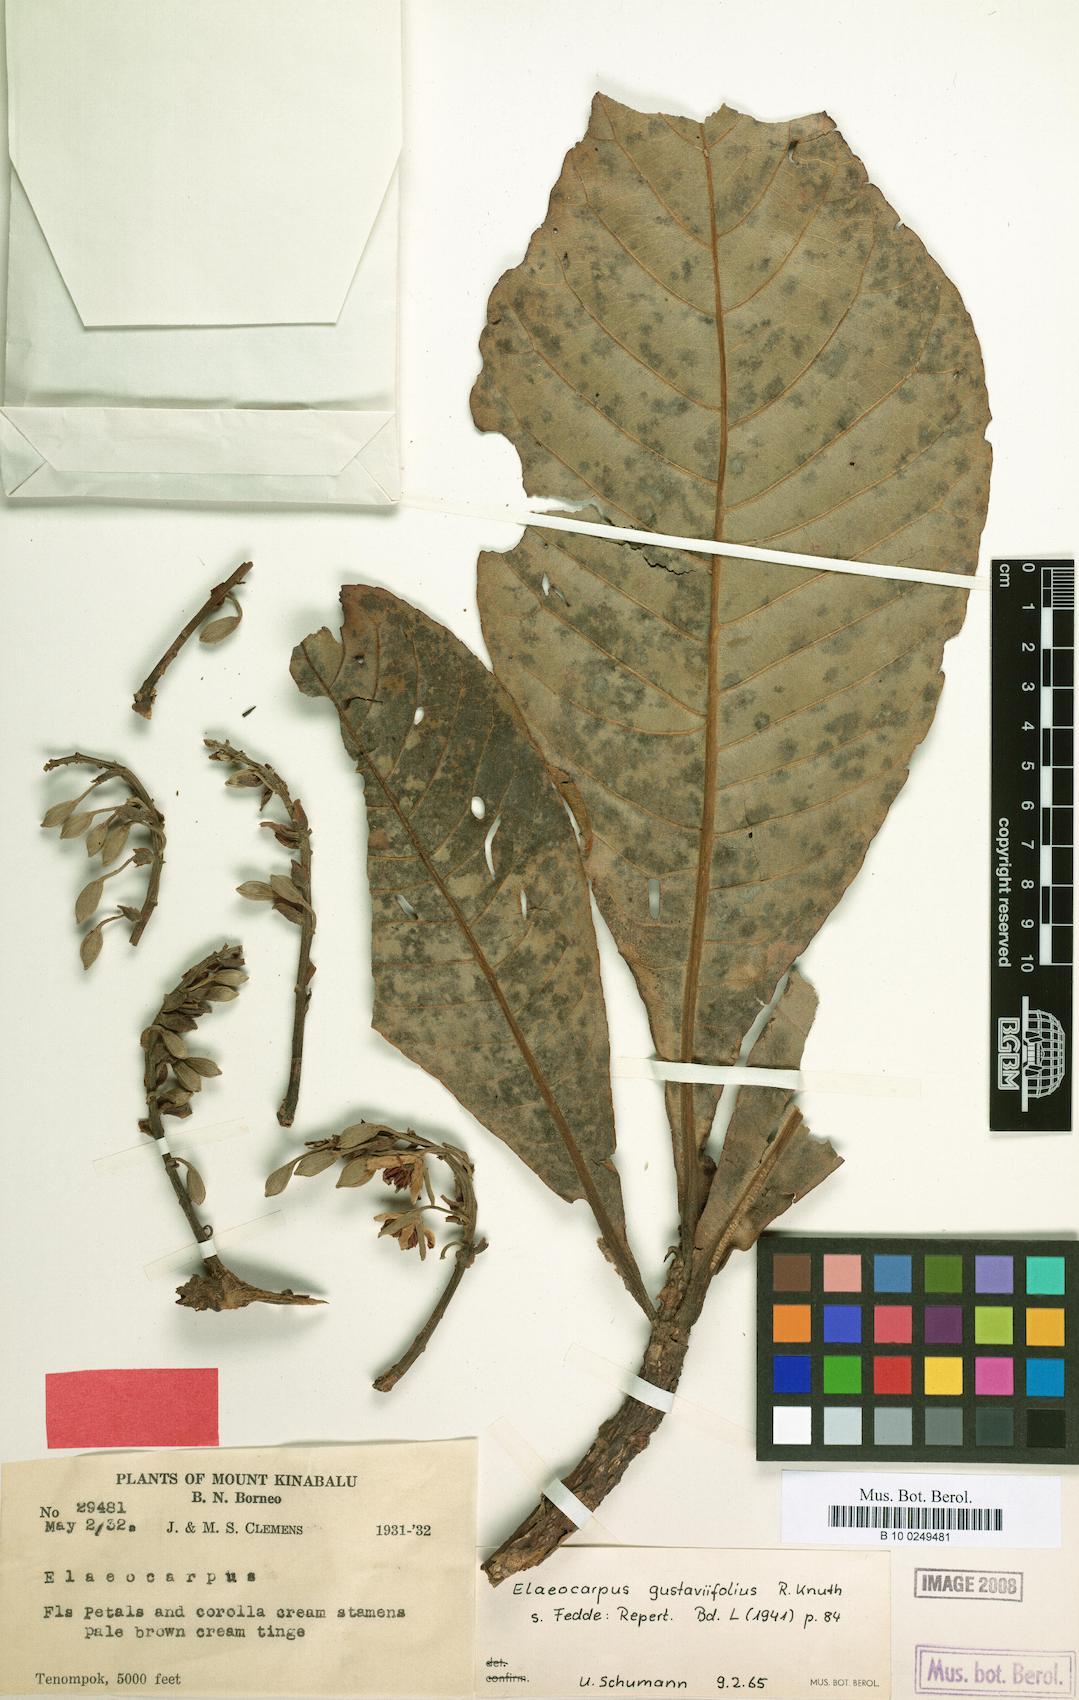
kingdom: Plantae
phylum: Tracheophyta
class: Magnoliopsida
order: Oxalidales
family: Elaeocarpaceae
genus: Elaeocarpus
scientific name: Elaeocarpus gustaviifolius
